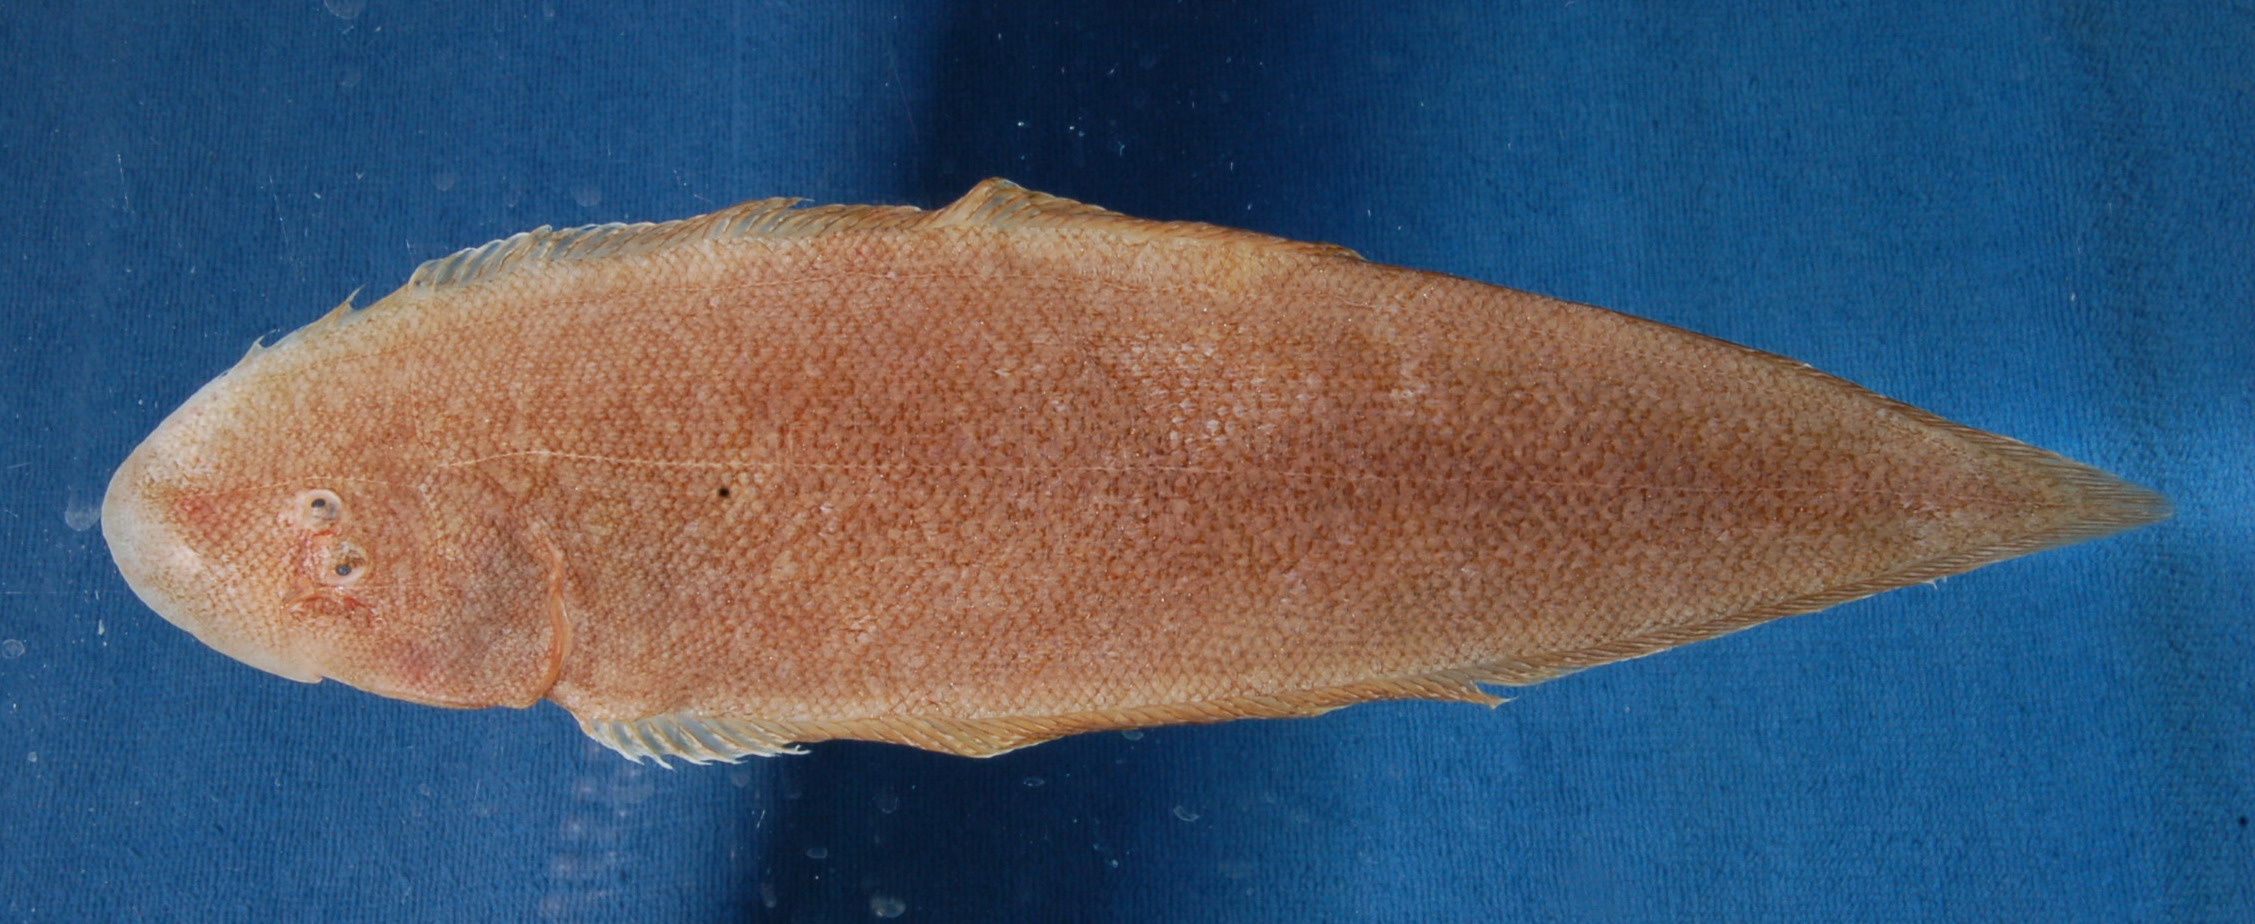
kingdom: Animalia
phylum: Chordata
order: Pleuronectiformes
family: Cynoglossidae
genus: Cynoglossus
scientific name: Cynoglossus lida
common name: Roughscale tonguesole
